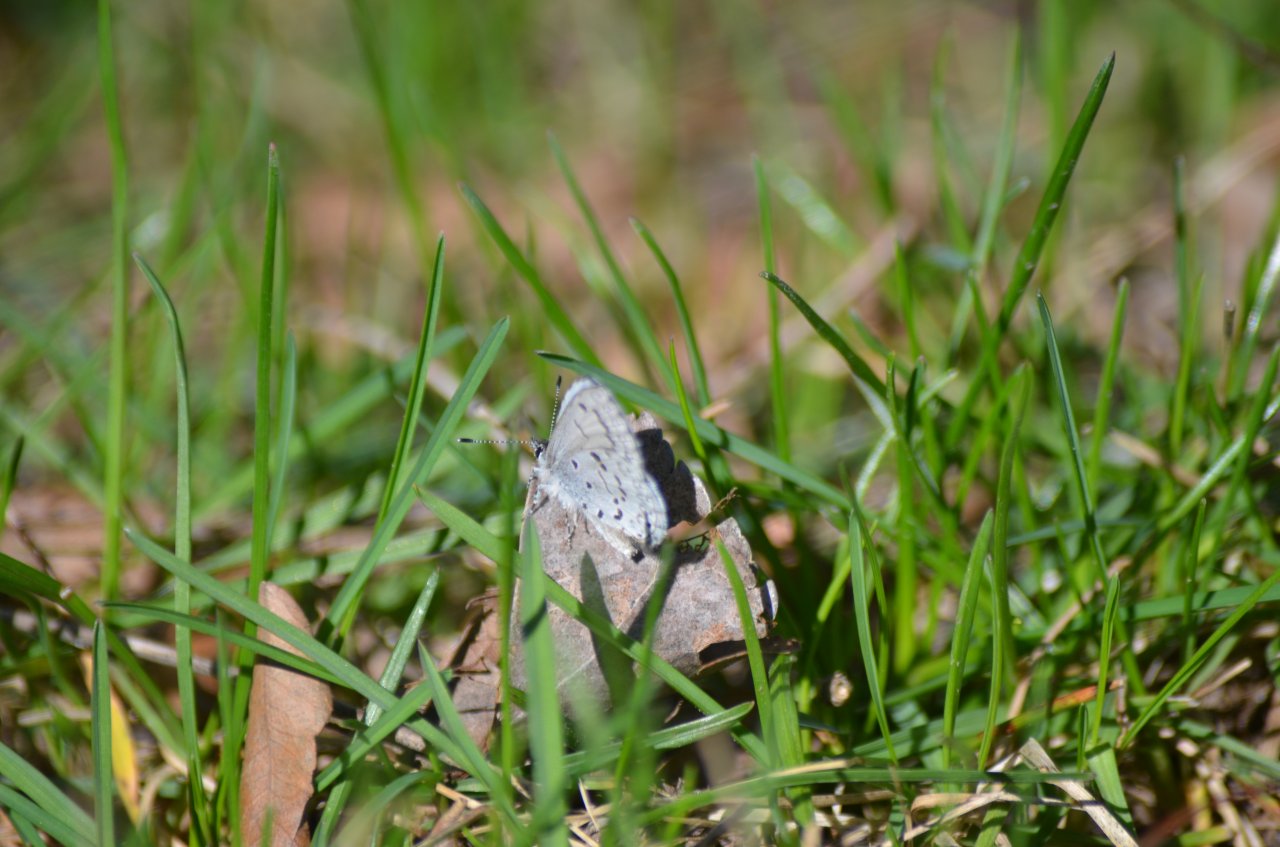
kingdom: Animalia
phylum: Arthropoda
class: Insecta
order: Lepidoptera
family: Lycaenidae
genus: Celastrina
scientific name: Celastrina lucia
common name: Northern Spring Azure
